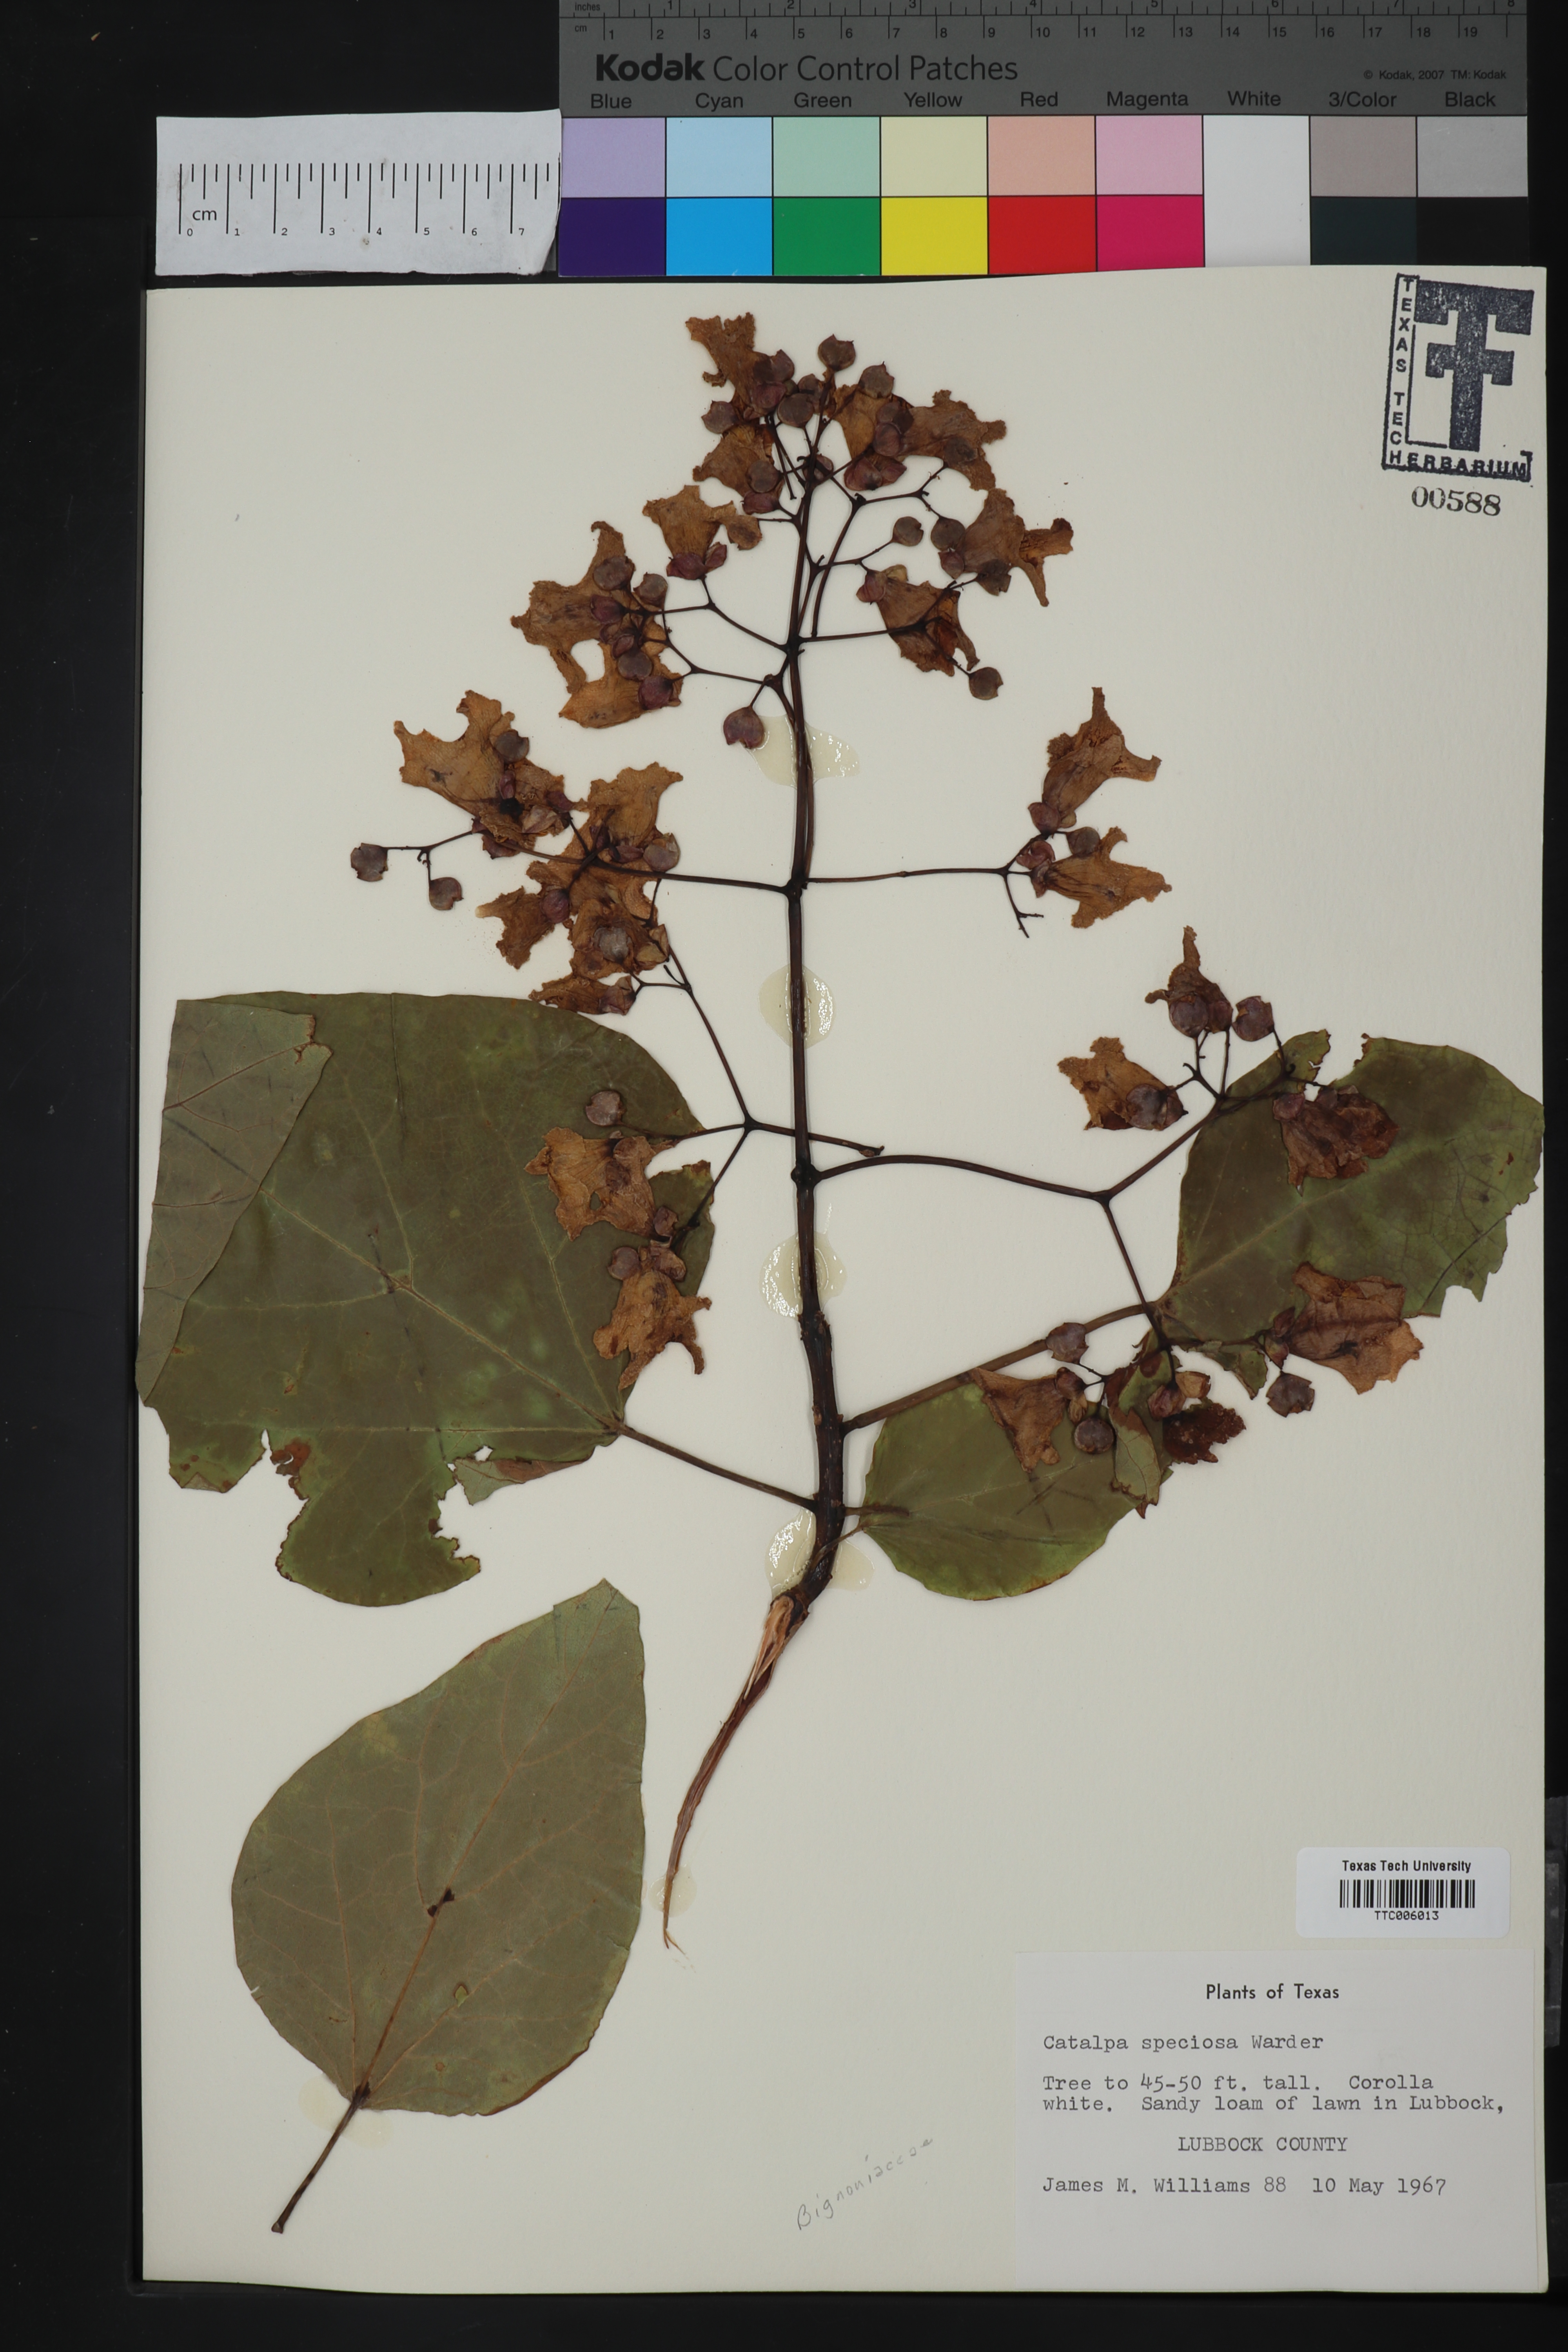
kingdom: Plantae
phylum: Tracheophyta
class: Magnoliopsida
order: Lamiales
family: Bignoniaceae
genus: Catalpa
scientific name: Catalpa speciosa
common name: Northern catalpa
